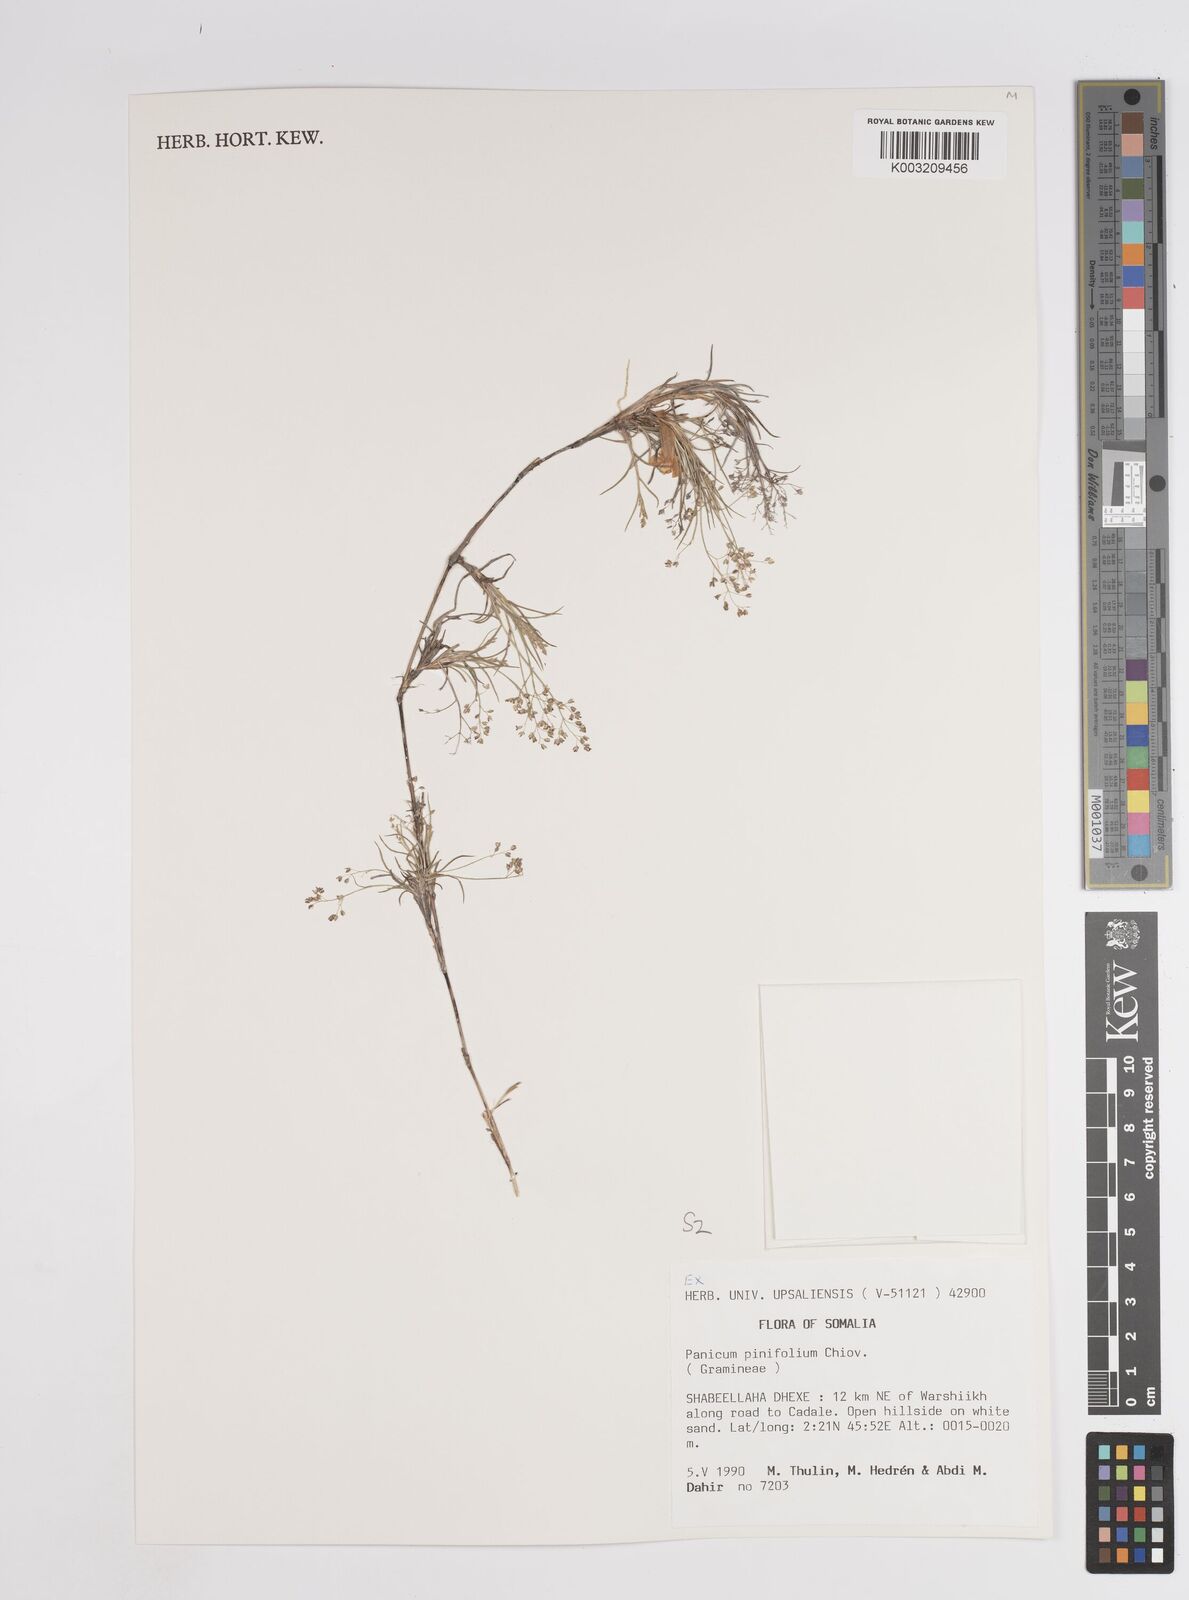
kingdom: Plantae
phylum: Tracheophyta
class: Liliopsida
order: Poales
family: Poaceae
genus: Panicum
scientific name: Panicum pinifolium
